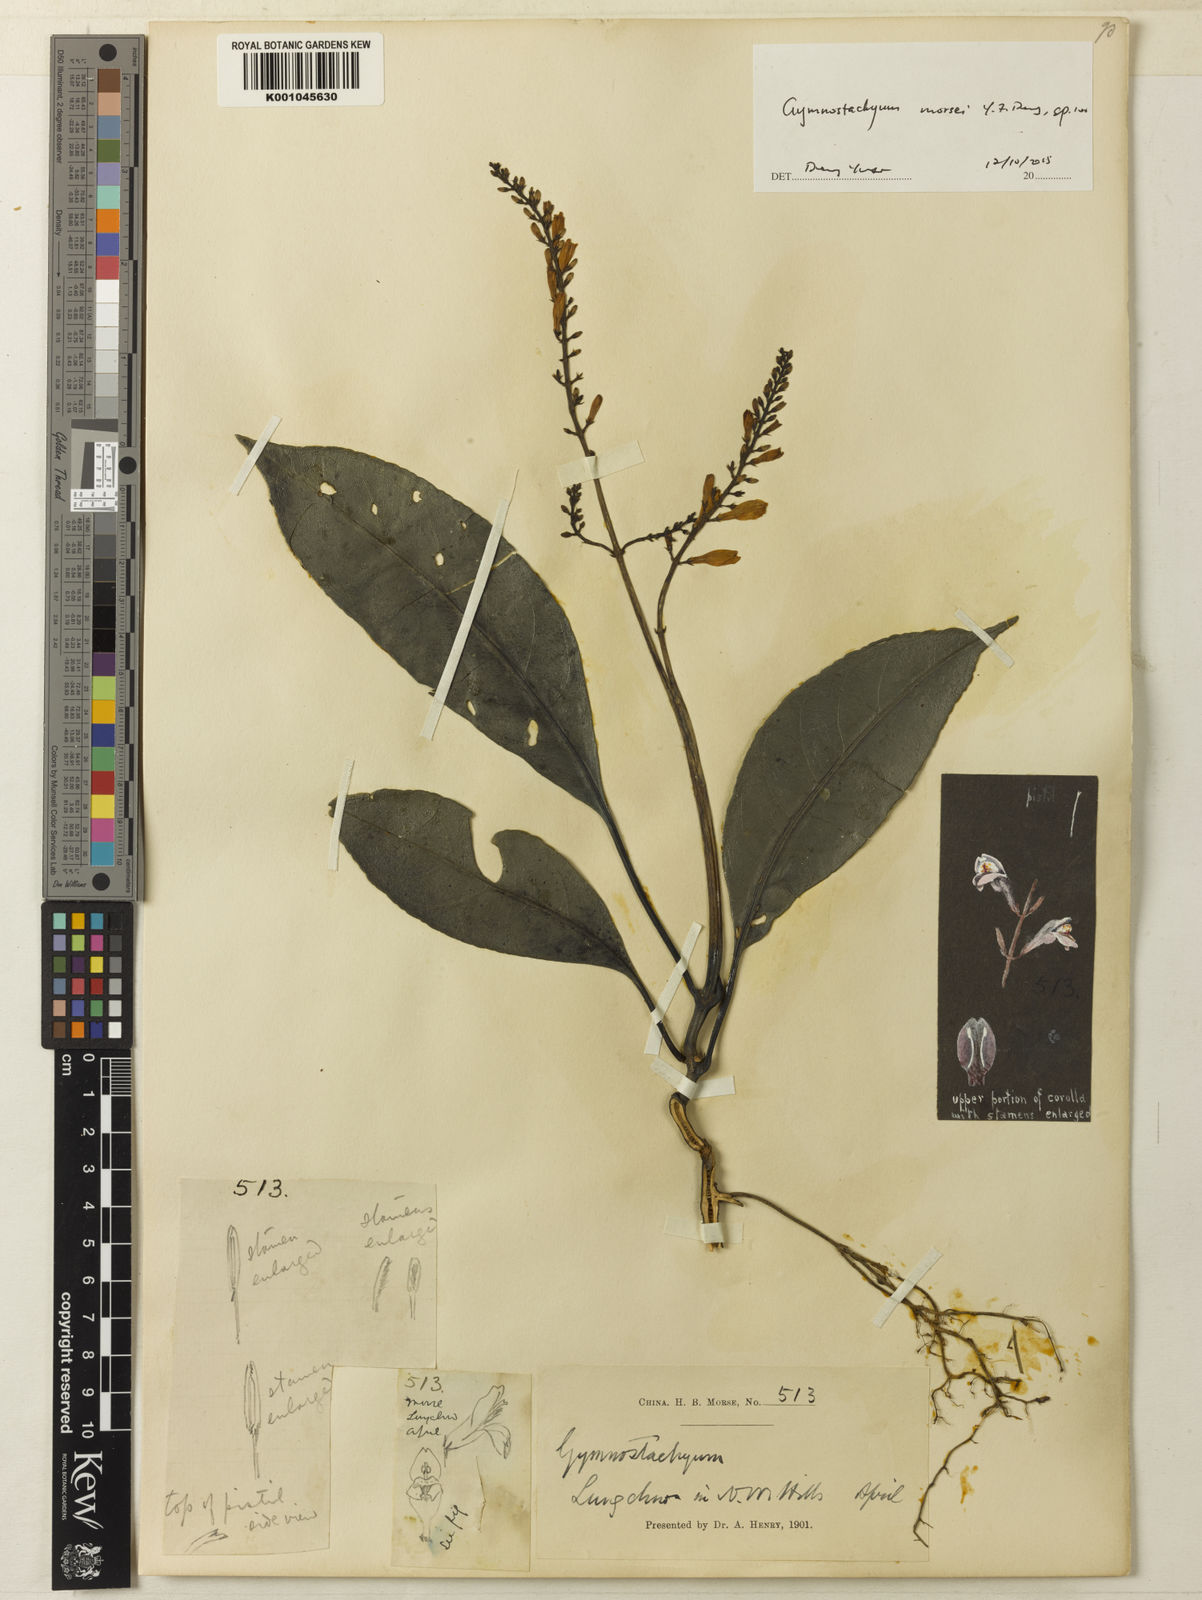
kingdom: Plantae
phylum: Tracheophyta
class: Magnoliopsida
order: Lamiales
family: Acanthaceae
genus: Gymnostachyum
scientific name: Gymnostachyum
